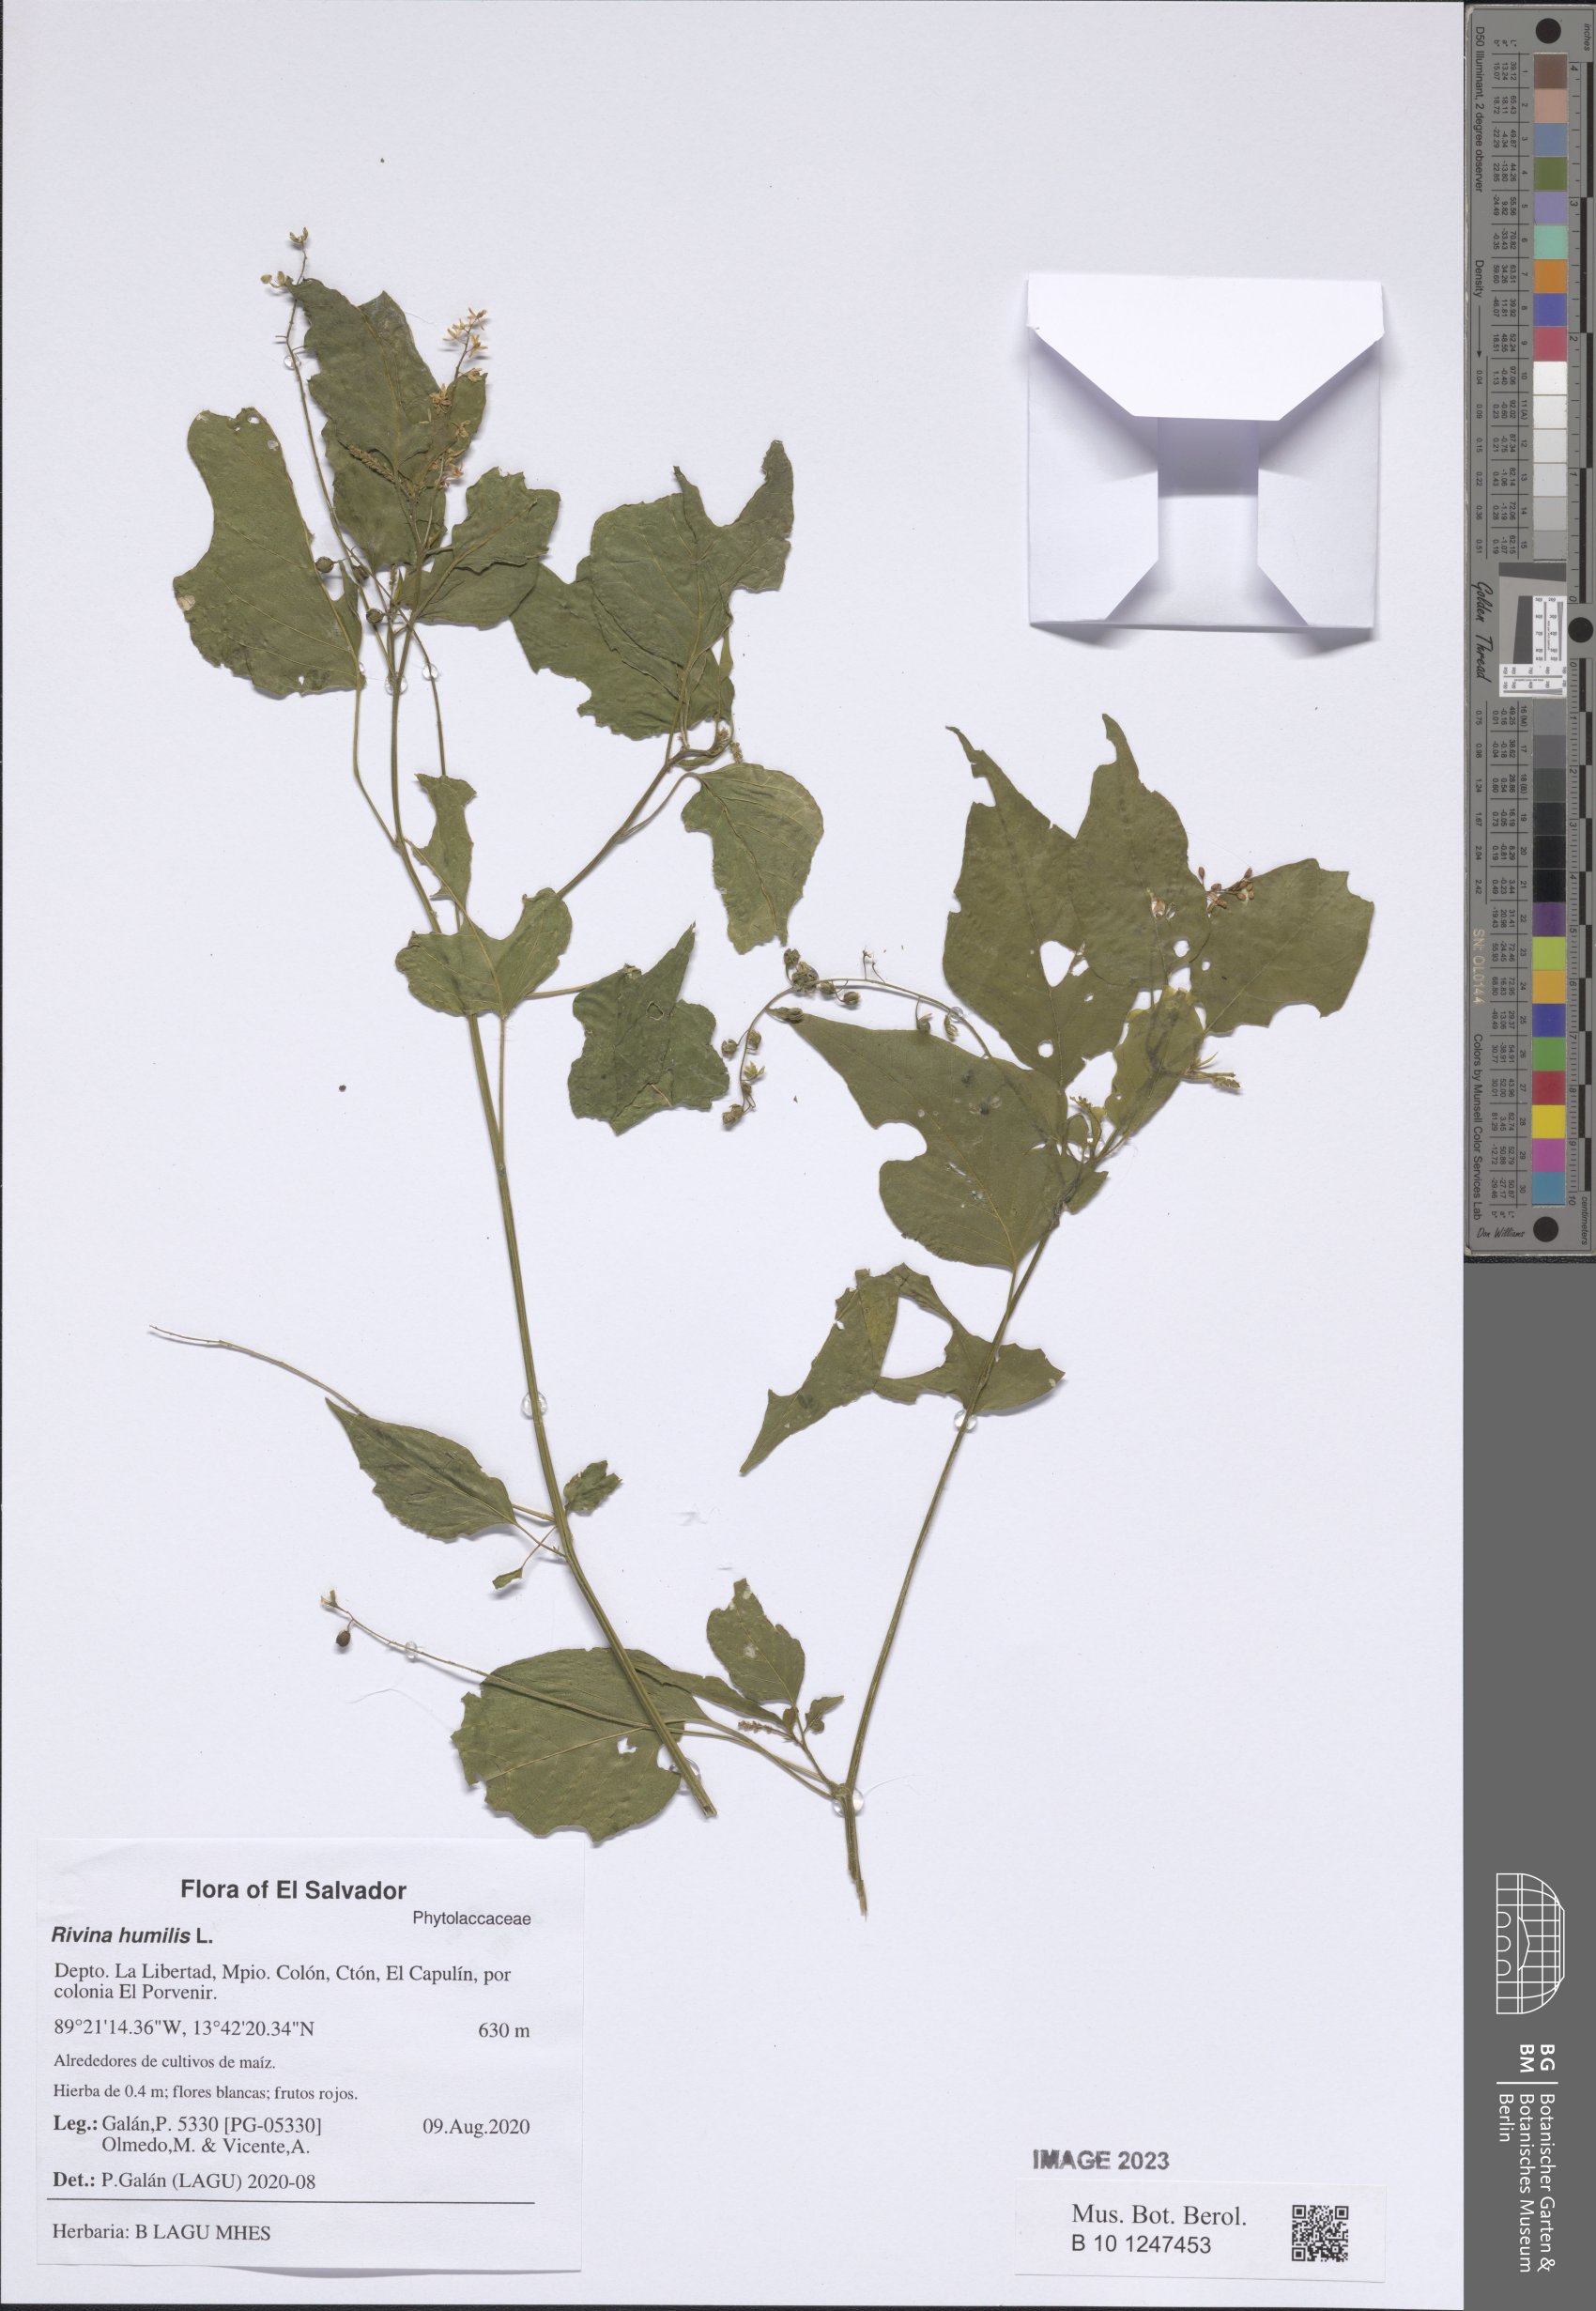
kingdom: Plantae
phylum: Tracheophyta
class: Magnoliopsida
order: Caryophyllales
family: Phytolaccaceae
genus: Rivina
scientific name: Rivina humilis
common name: Rougeplant
